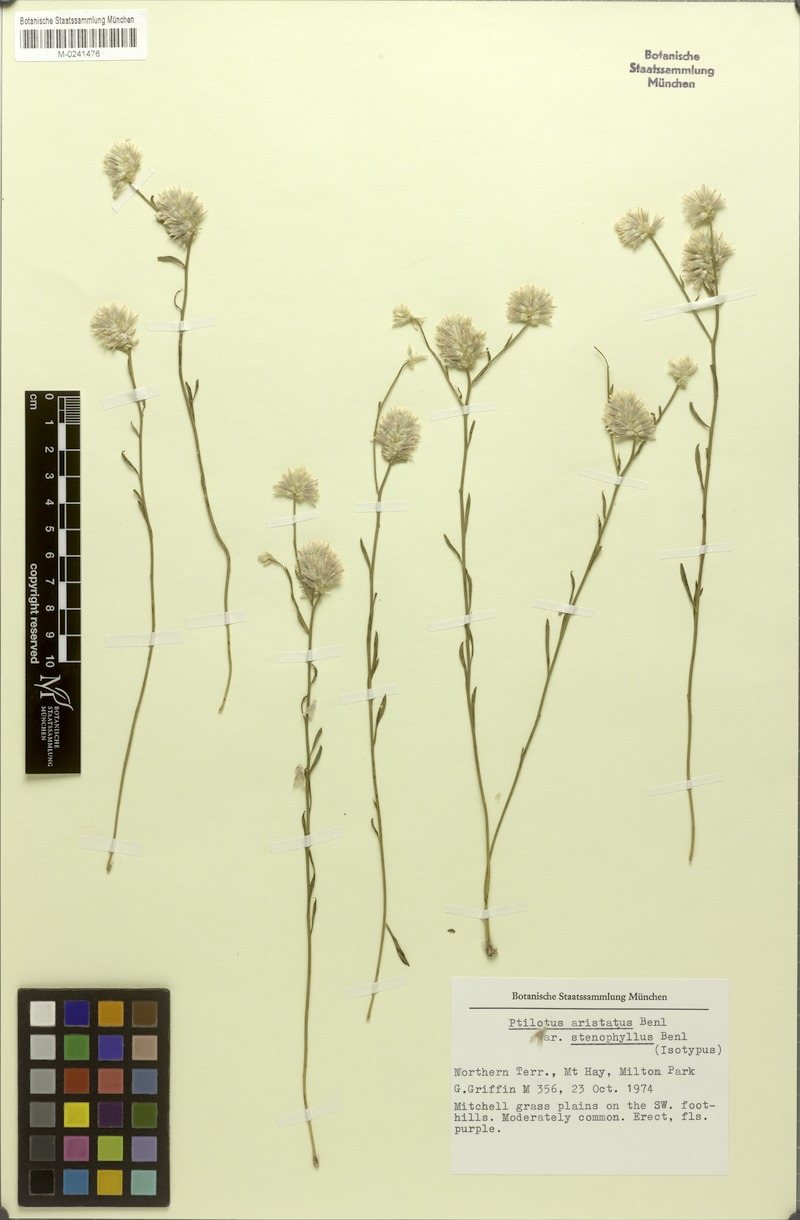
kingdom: Plantae
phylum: Tracheophyta
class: Magnoliopsida
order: Caryophyllales
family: Amaranthaceae
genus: Ptilotus
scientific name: Ptilotus aristatus
